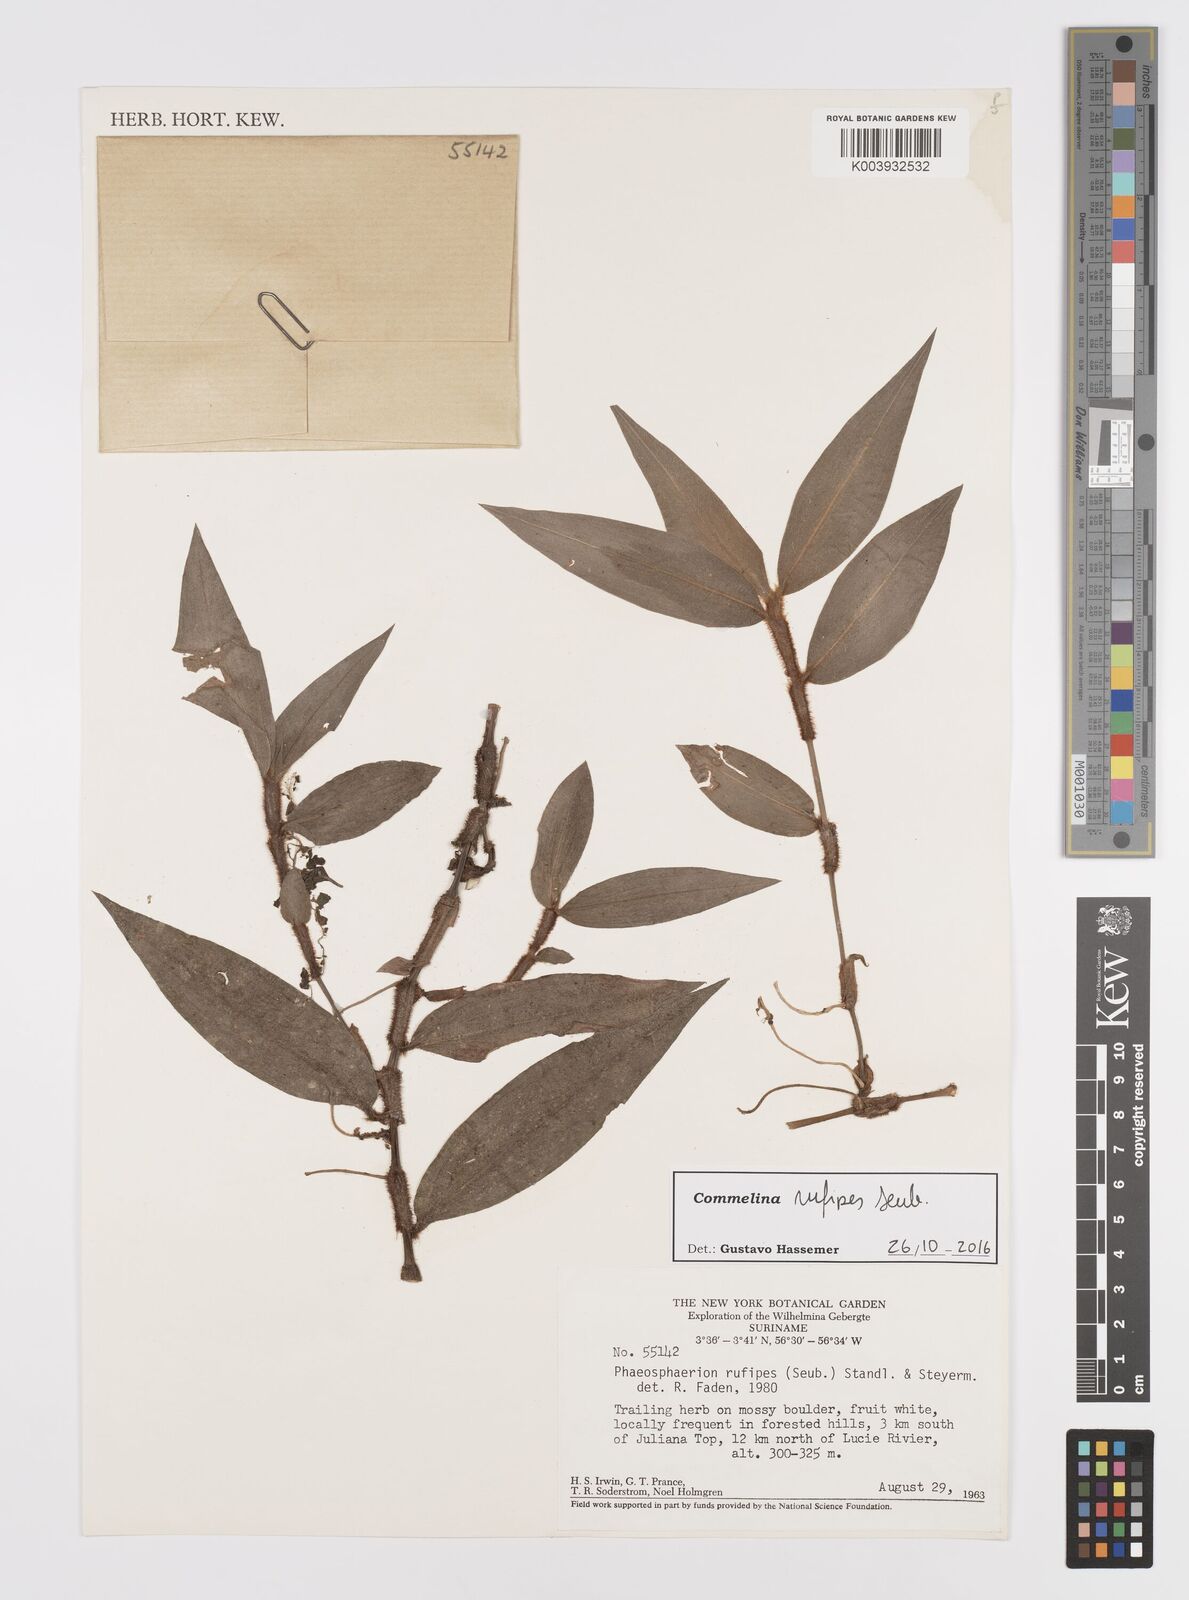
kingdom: Plantae
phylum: Tracheophyta
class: Liliopsida
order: Commelinales
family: Commelinaceae
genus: Commelina
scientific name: Commelina rufipes
